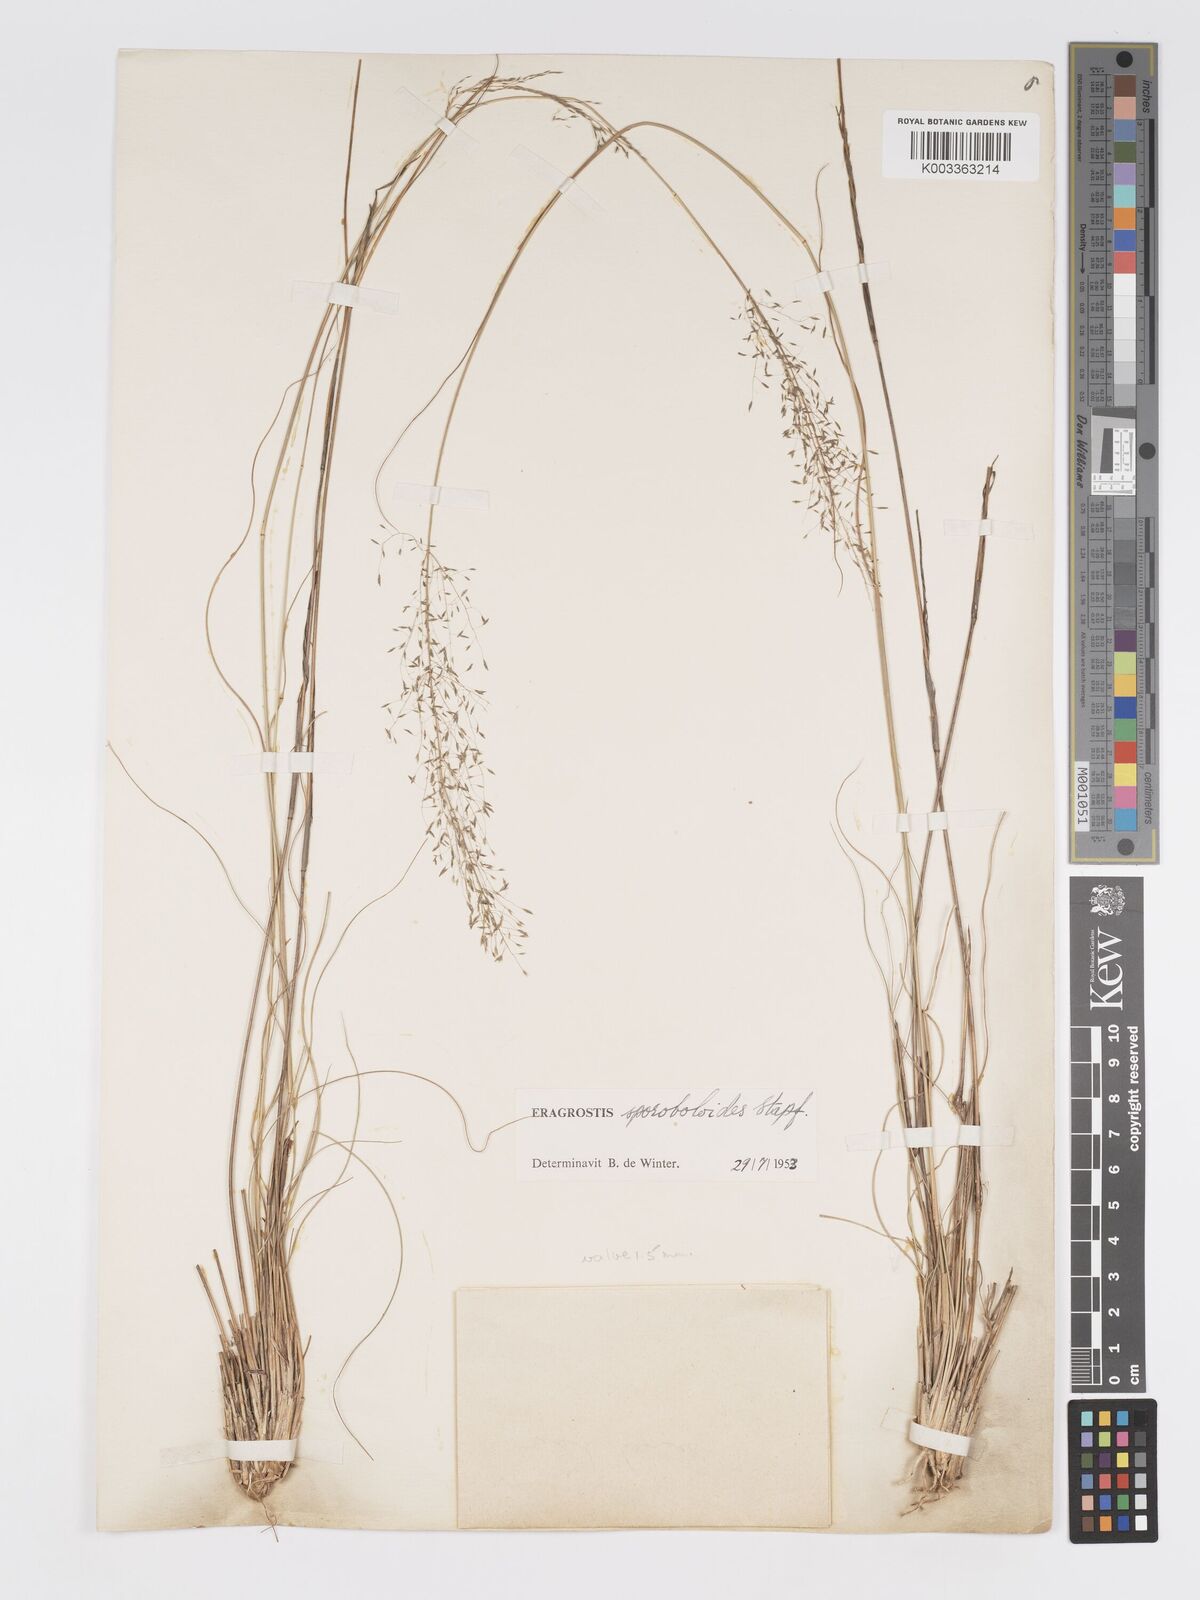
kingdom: Plantae
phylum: Tracheophyta
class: Liliopsida
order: Poales
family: Poaceae
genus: Eragrostis
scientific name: Eragrostis stapfii
